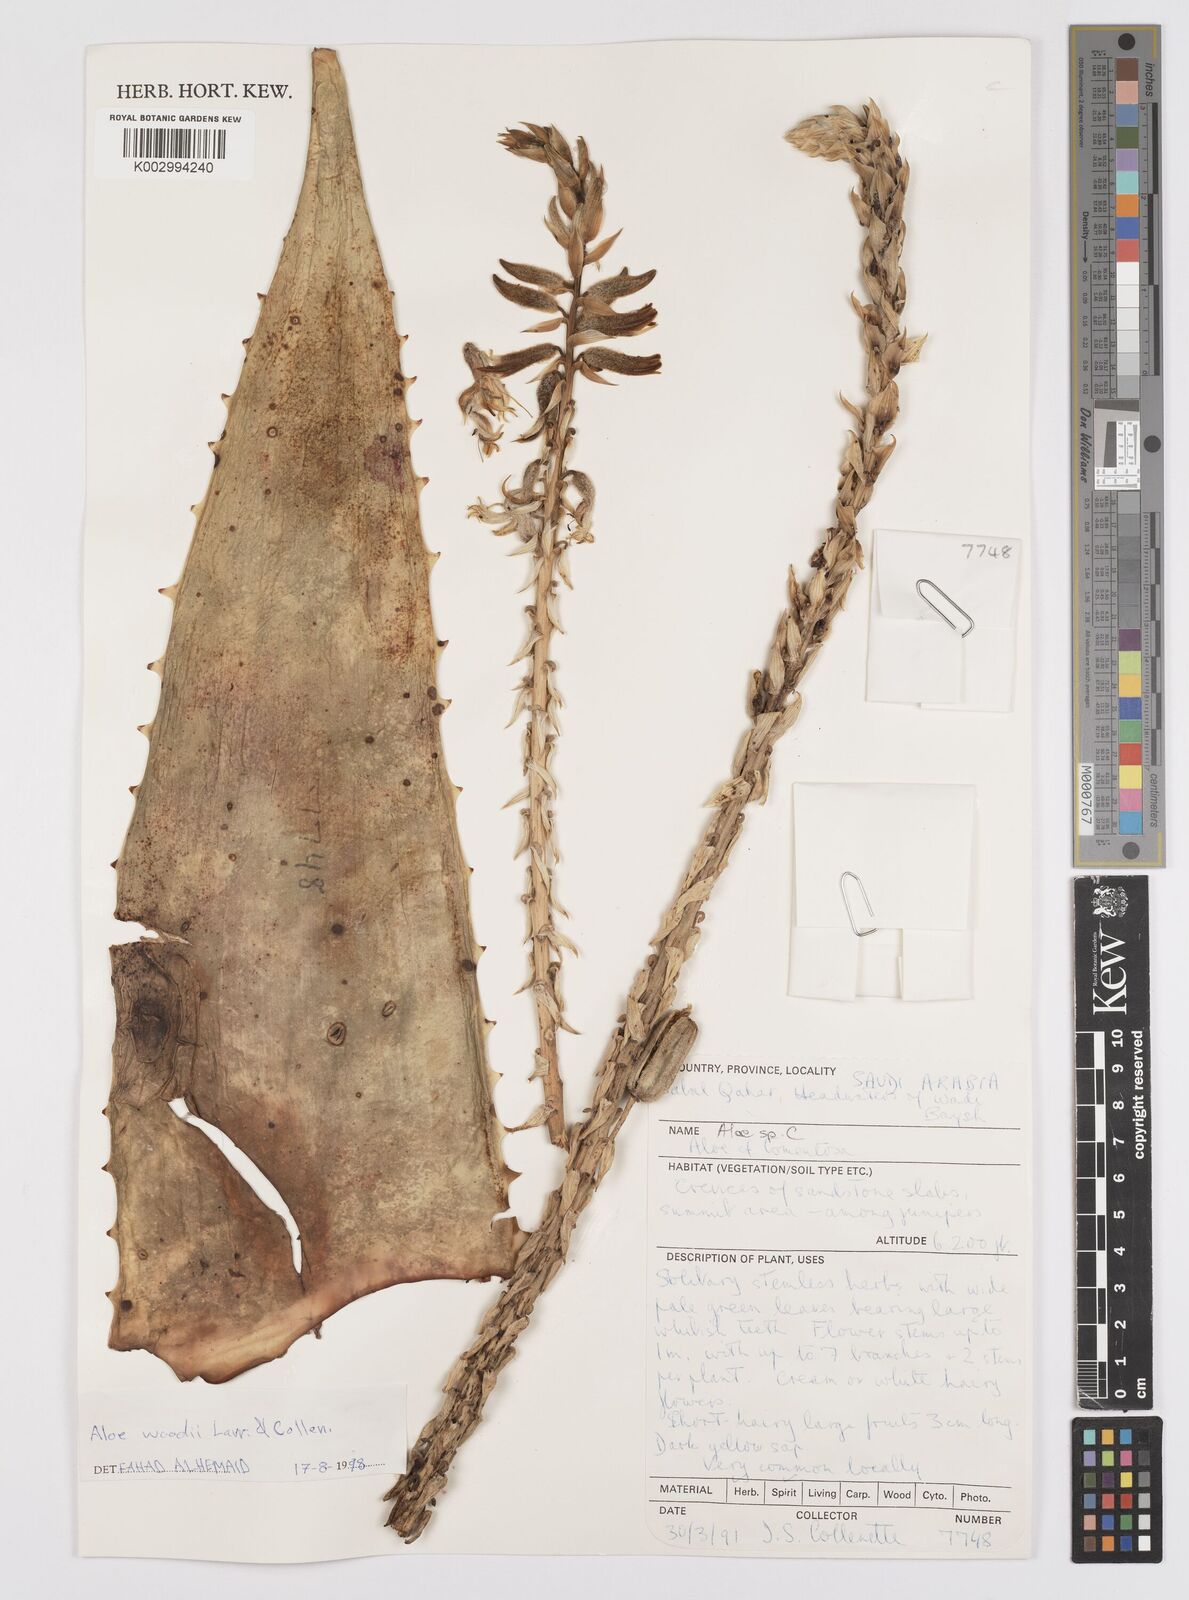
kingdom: Plantae
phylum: Tracheophyta
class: Liliopsida
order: Asparagales
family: Asphodelaceae
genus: Aloe
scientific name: Aloe woodii
